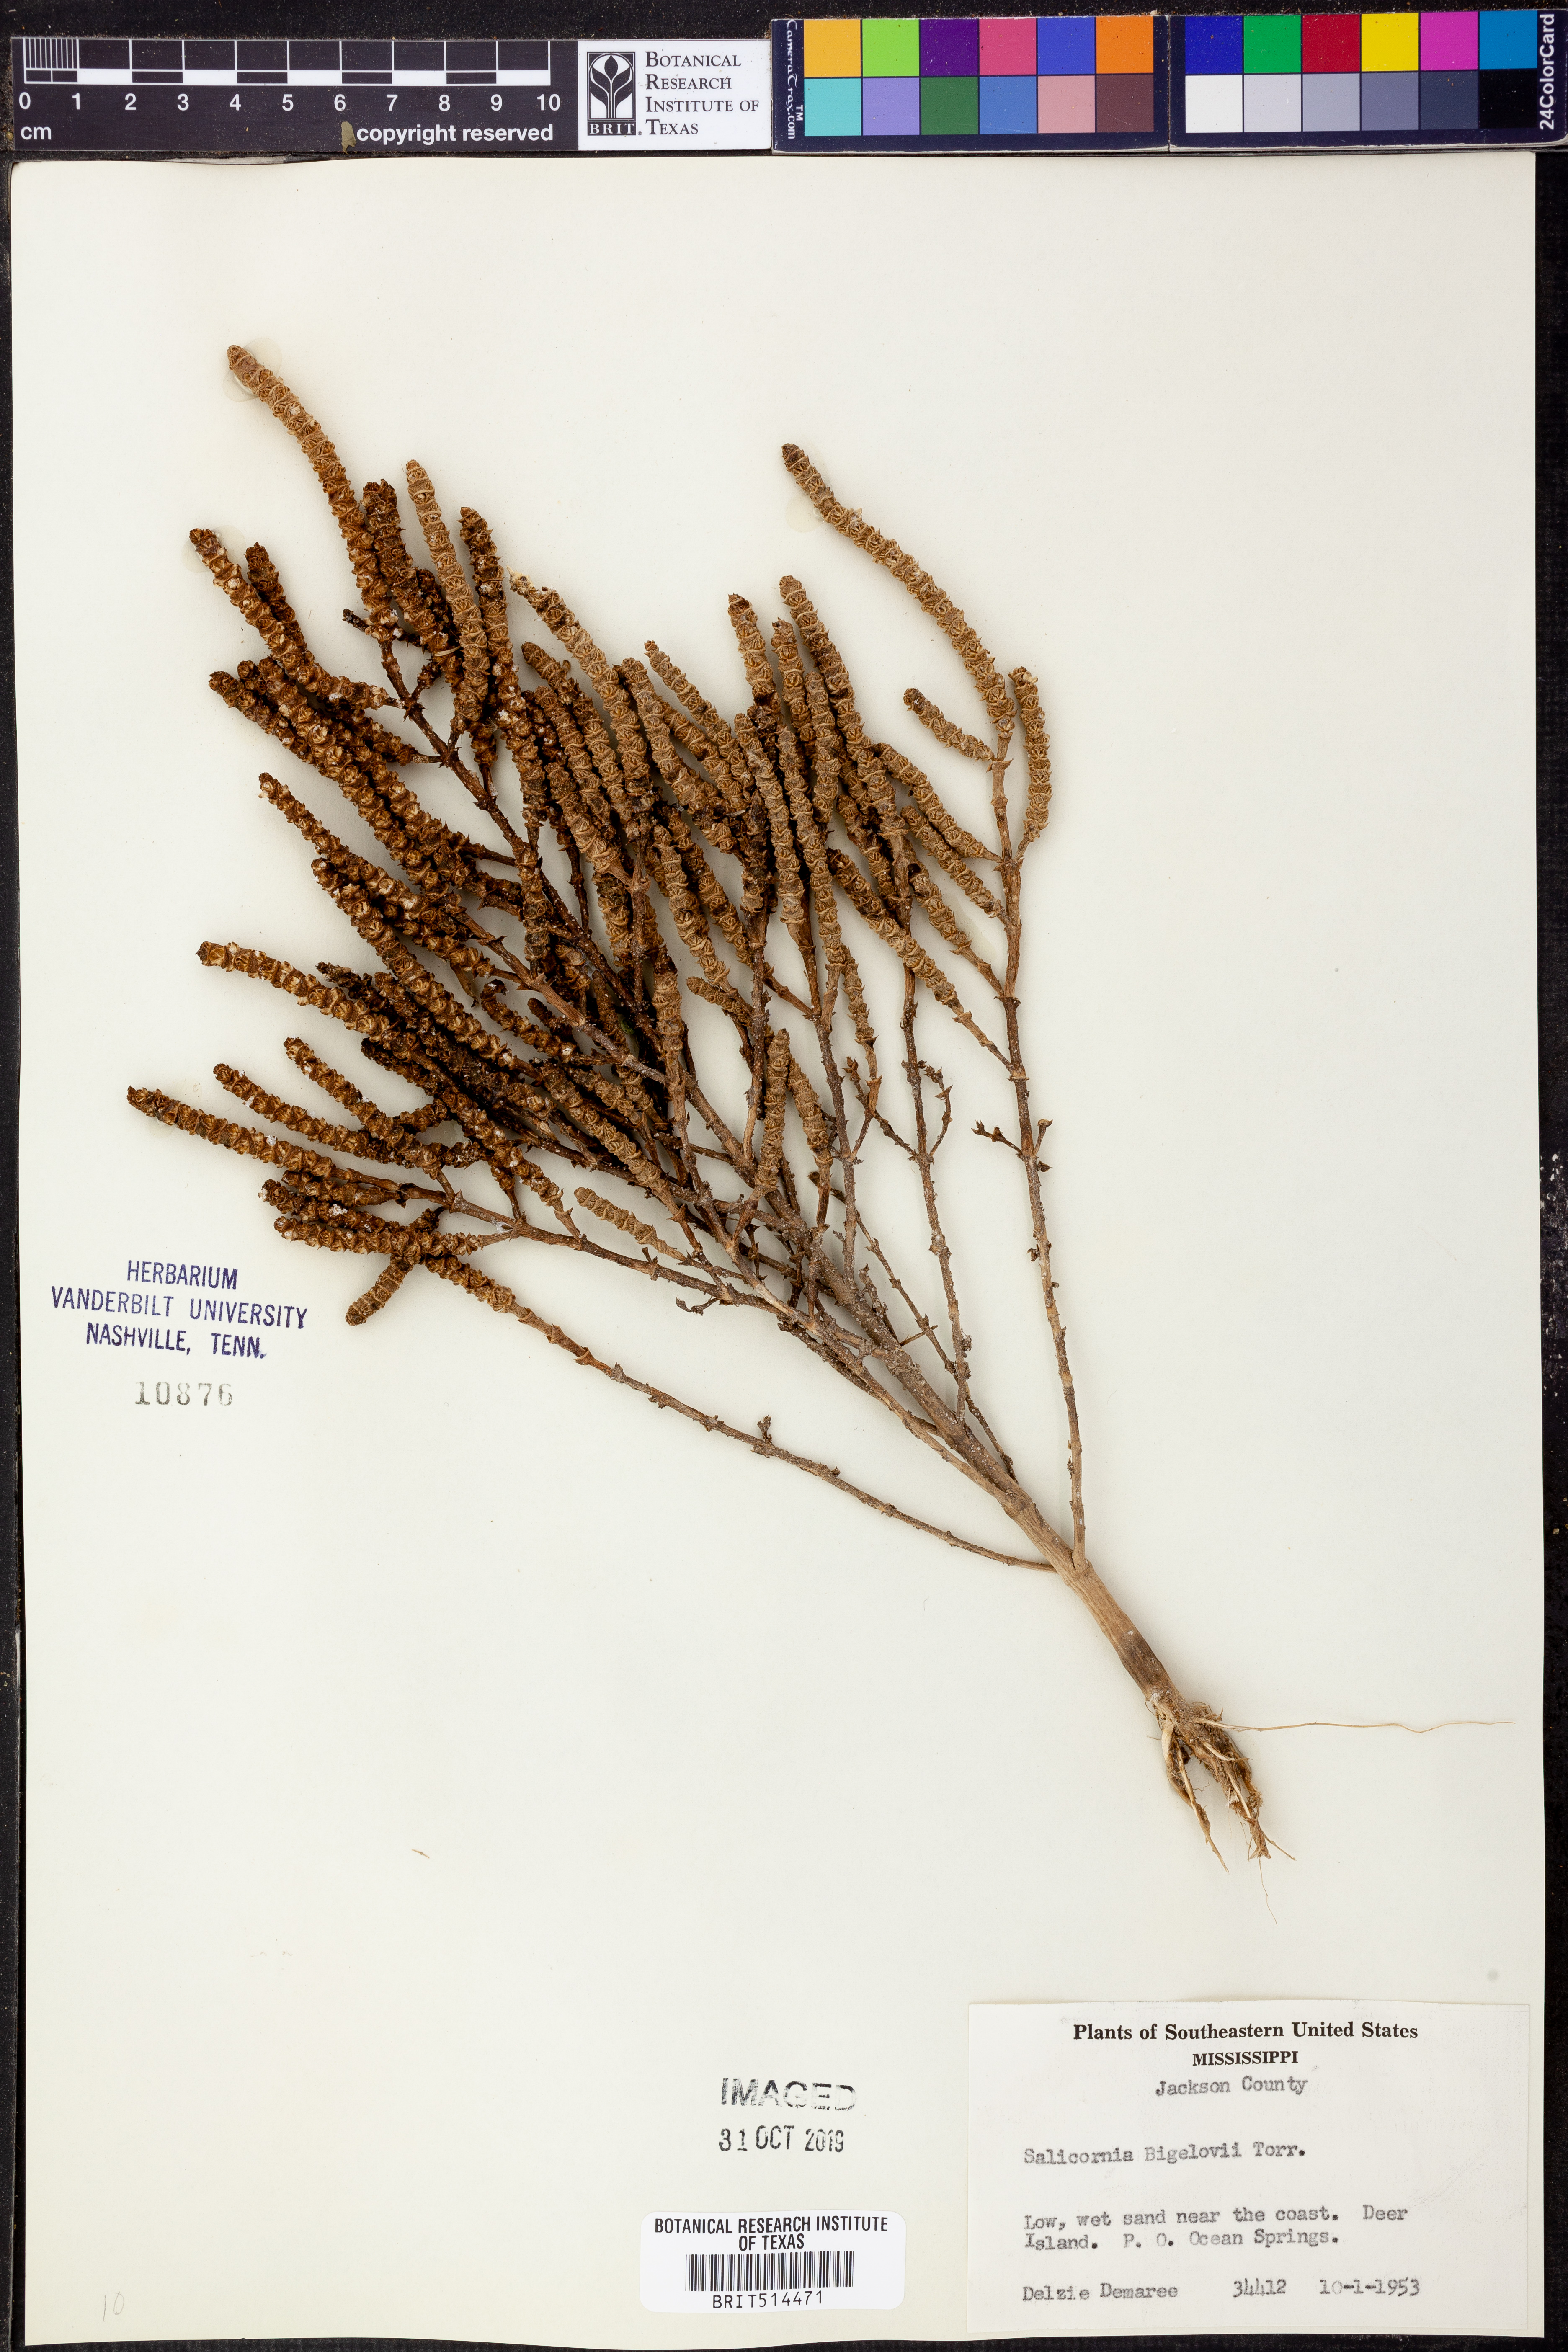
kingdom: Plantae
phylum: Tracheophyta
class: Magnoliopsida
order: Caryophyllales
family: Amaranthaceae
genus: Salicornia
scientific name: Salicornia bigelovii
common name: Dwarf glasswort
